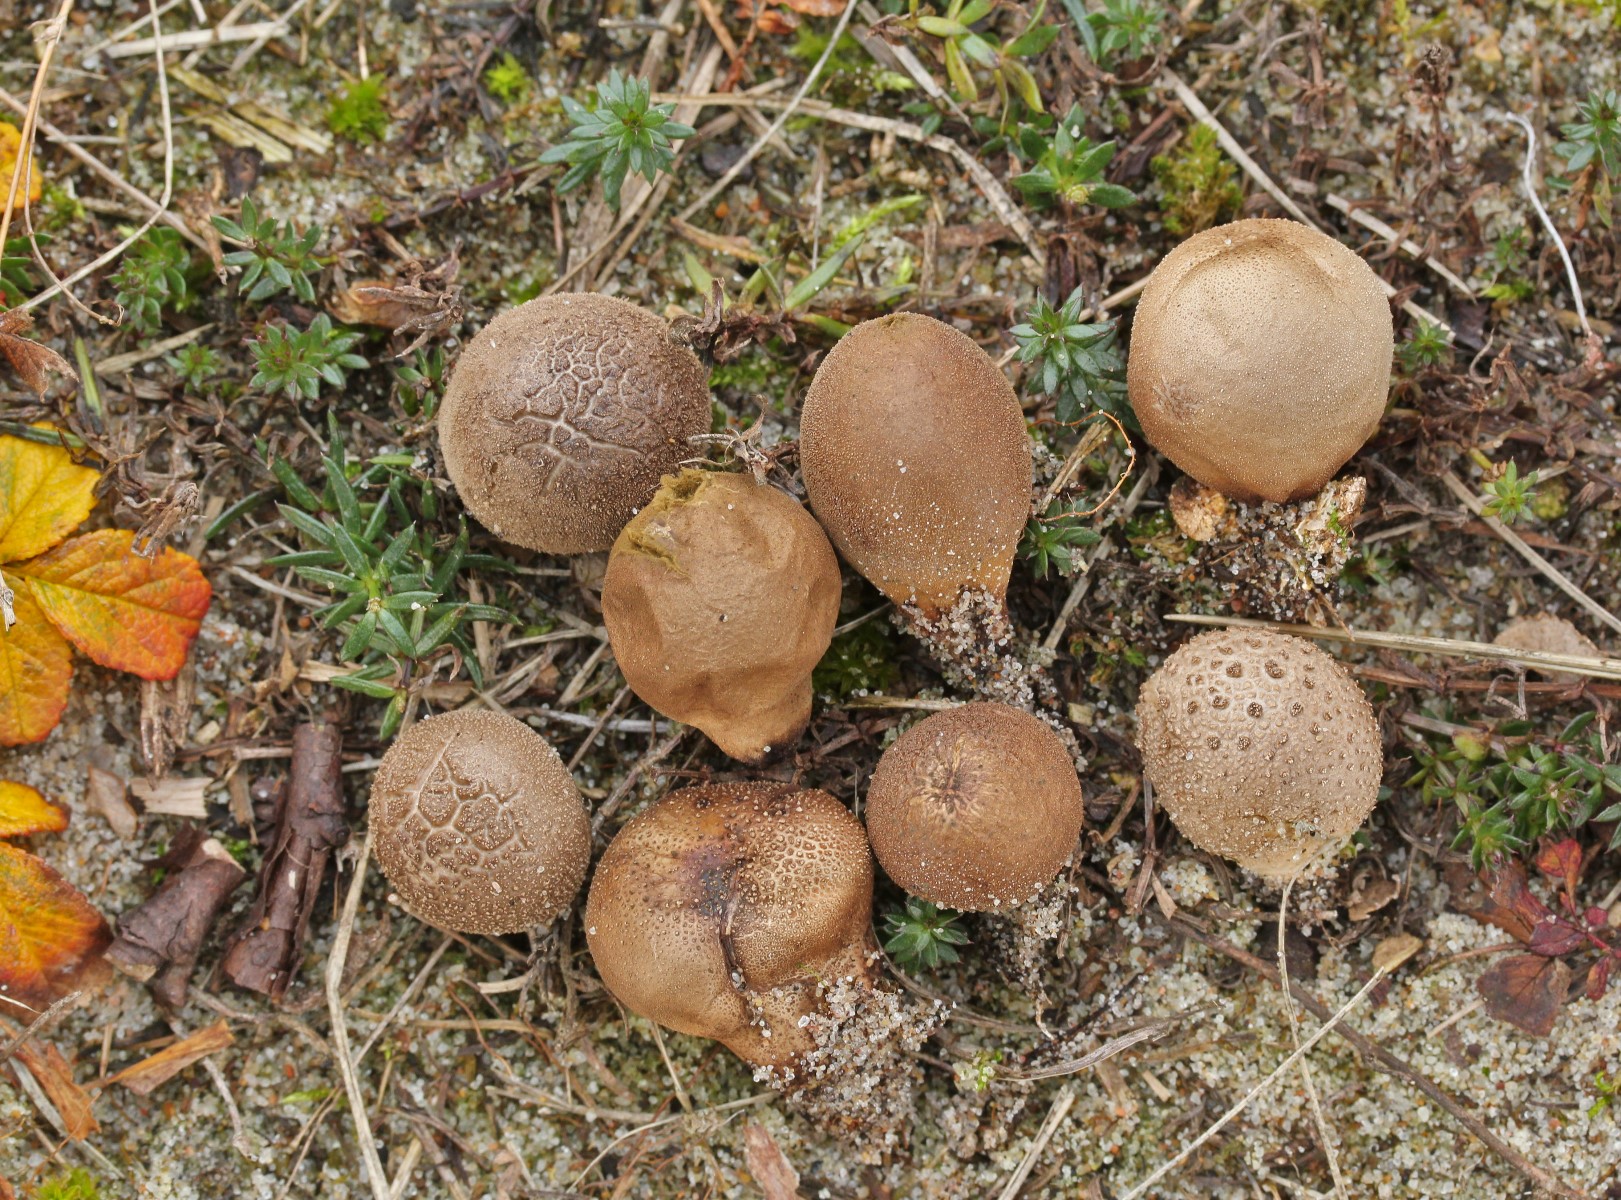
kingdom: Fungi
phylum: Basidiomycota
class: Agaricomycetes
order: Agaricales
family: Lycoperdaceae
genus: Lycoperdon
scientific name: Lycoperdon lividum
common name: mark-støvbold
